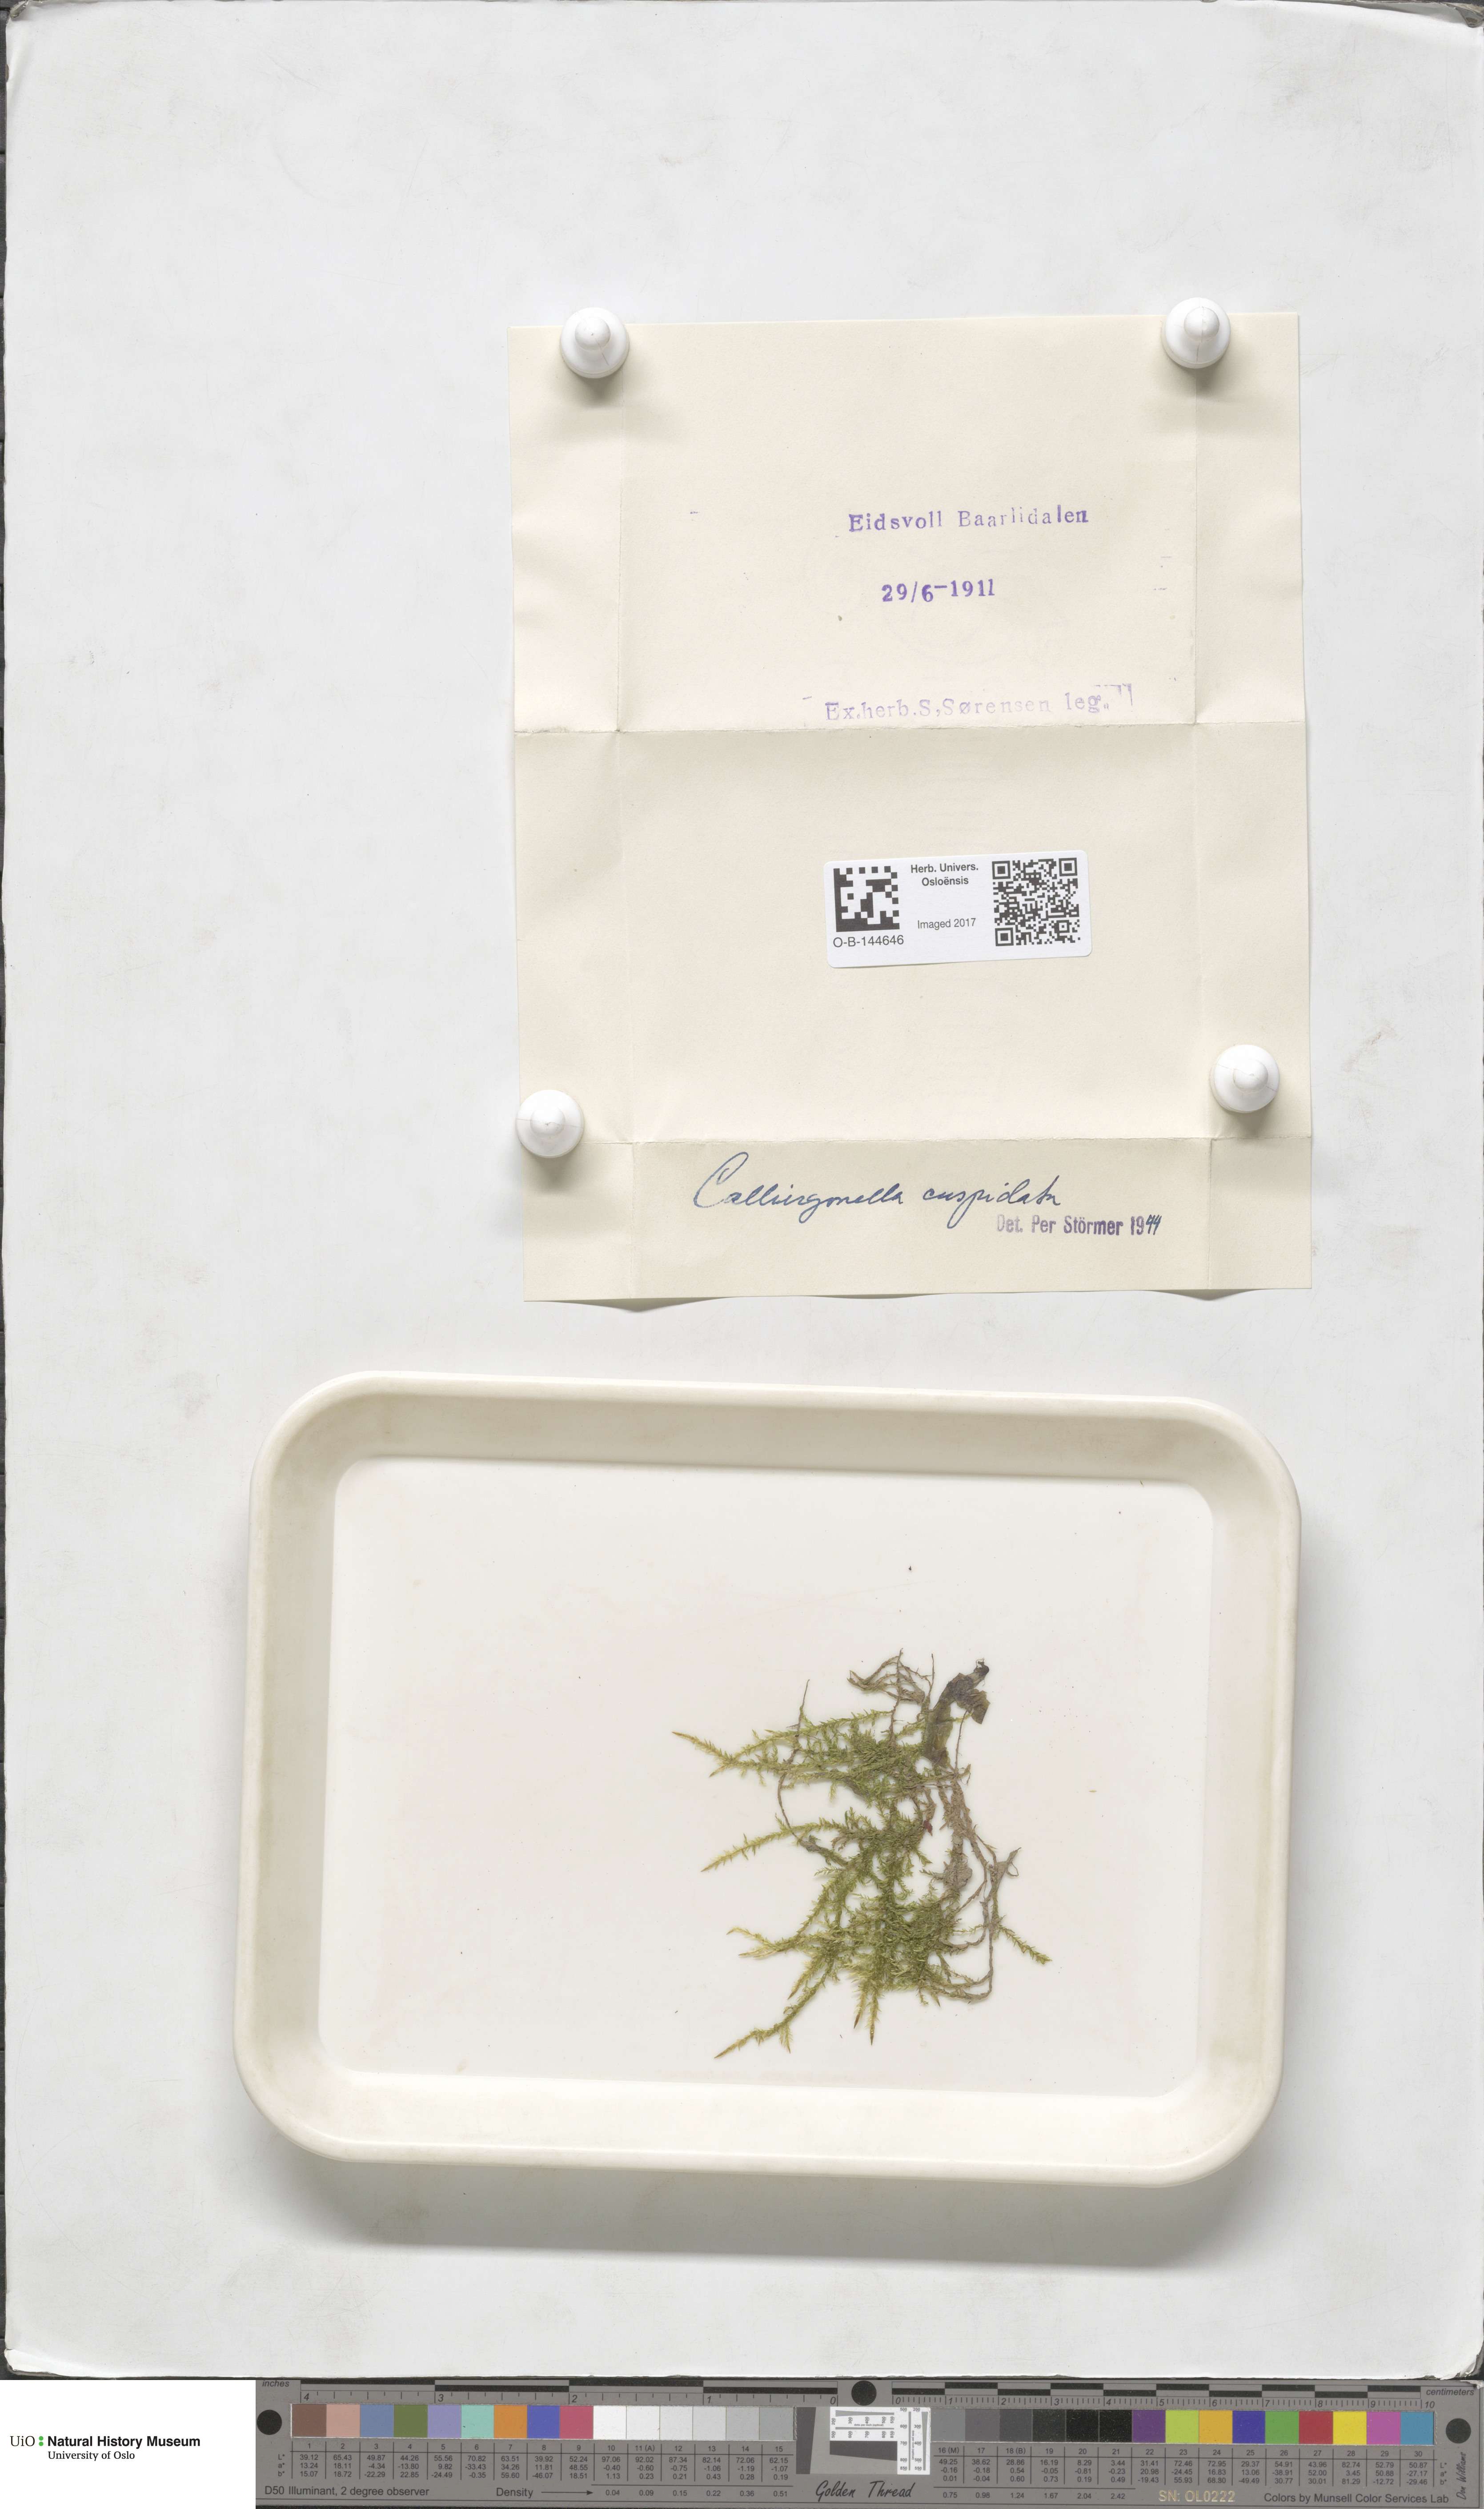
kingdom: Plantae
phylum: Bryophyta
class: Bryopsida
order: Hypnales
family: Pylaisiaceae
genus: Calliergonella
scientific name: Calliergonella cuspidata
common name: Common large wetland moss
